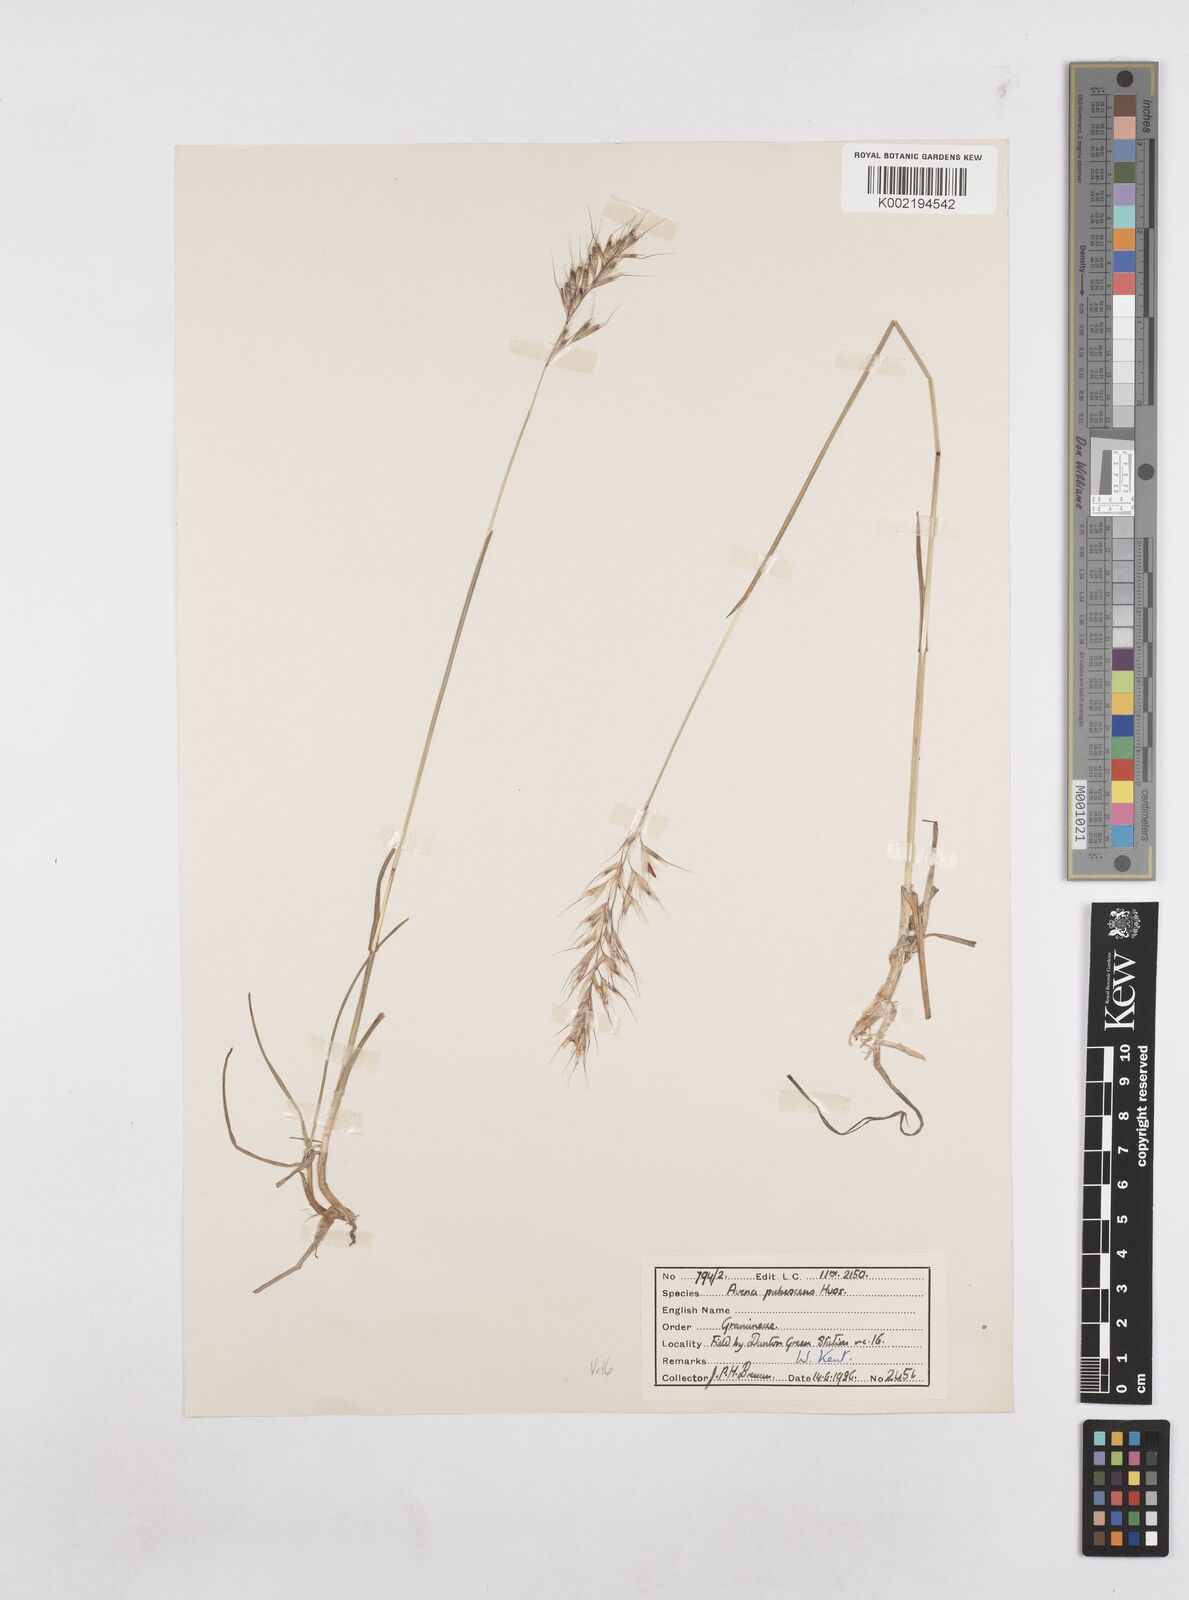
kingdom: Plantae
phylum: Tracheophyta
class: Liliopsida
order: Poales
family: Poaceae
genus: Avenula
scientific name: Avenula pubescens
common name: Downy alpine oatgrass
